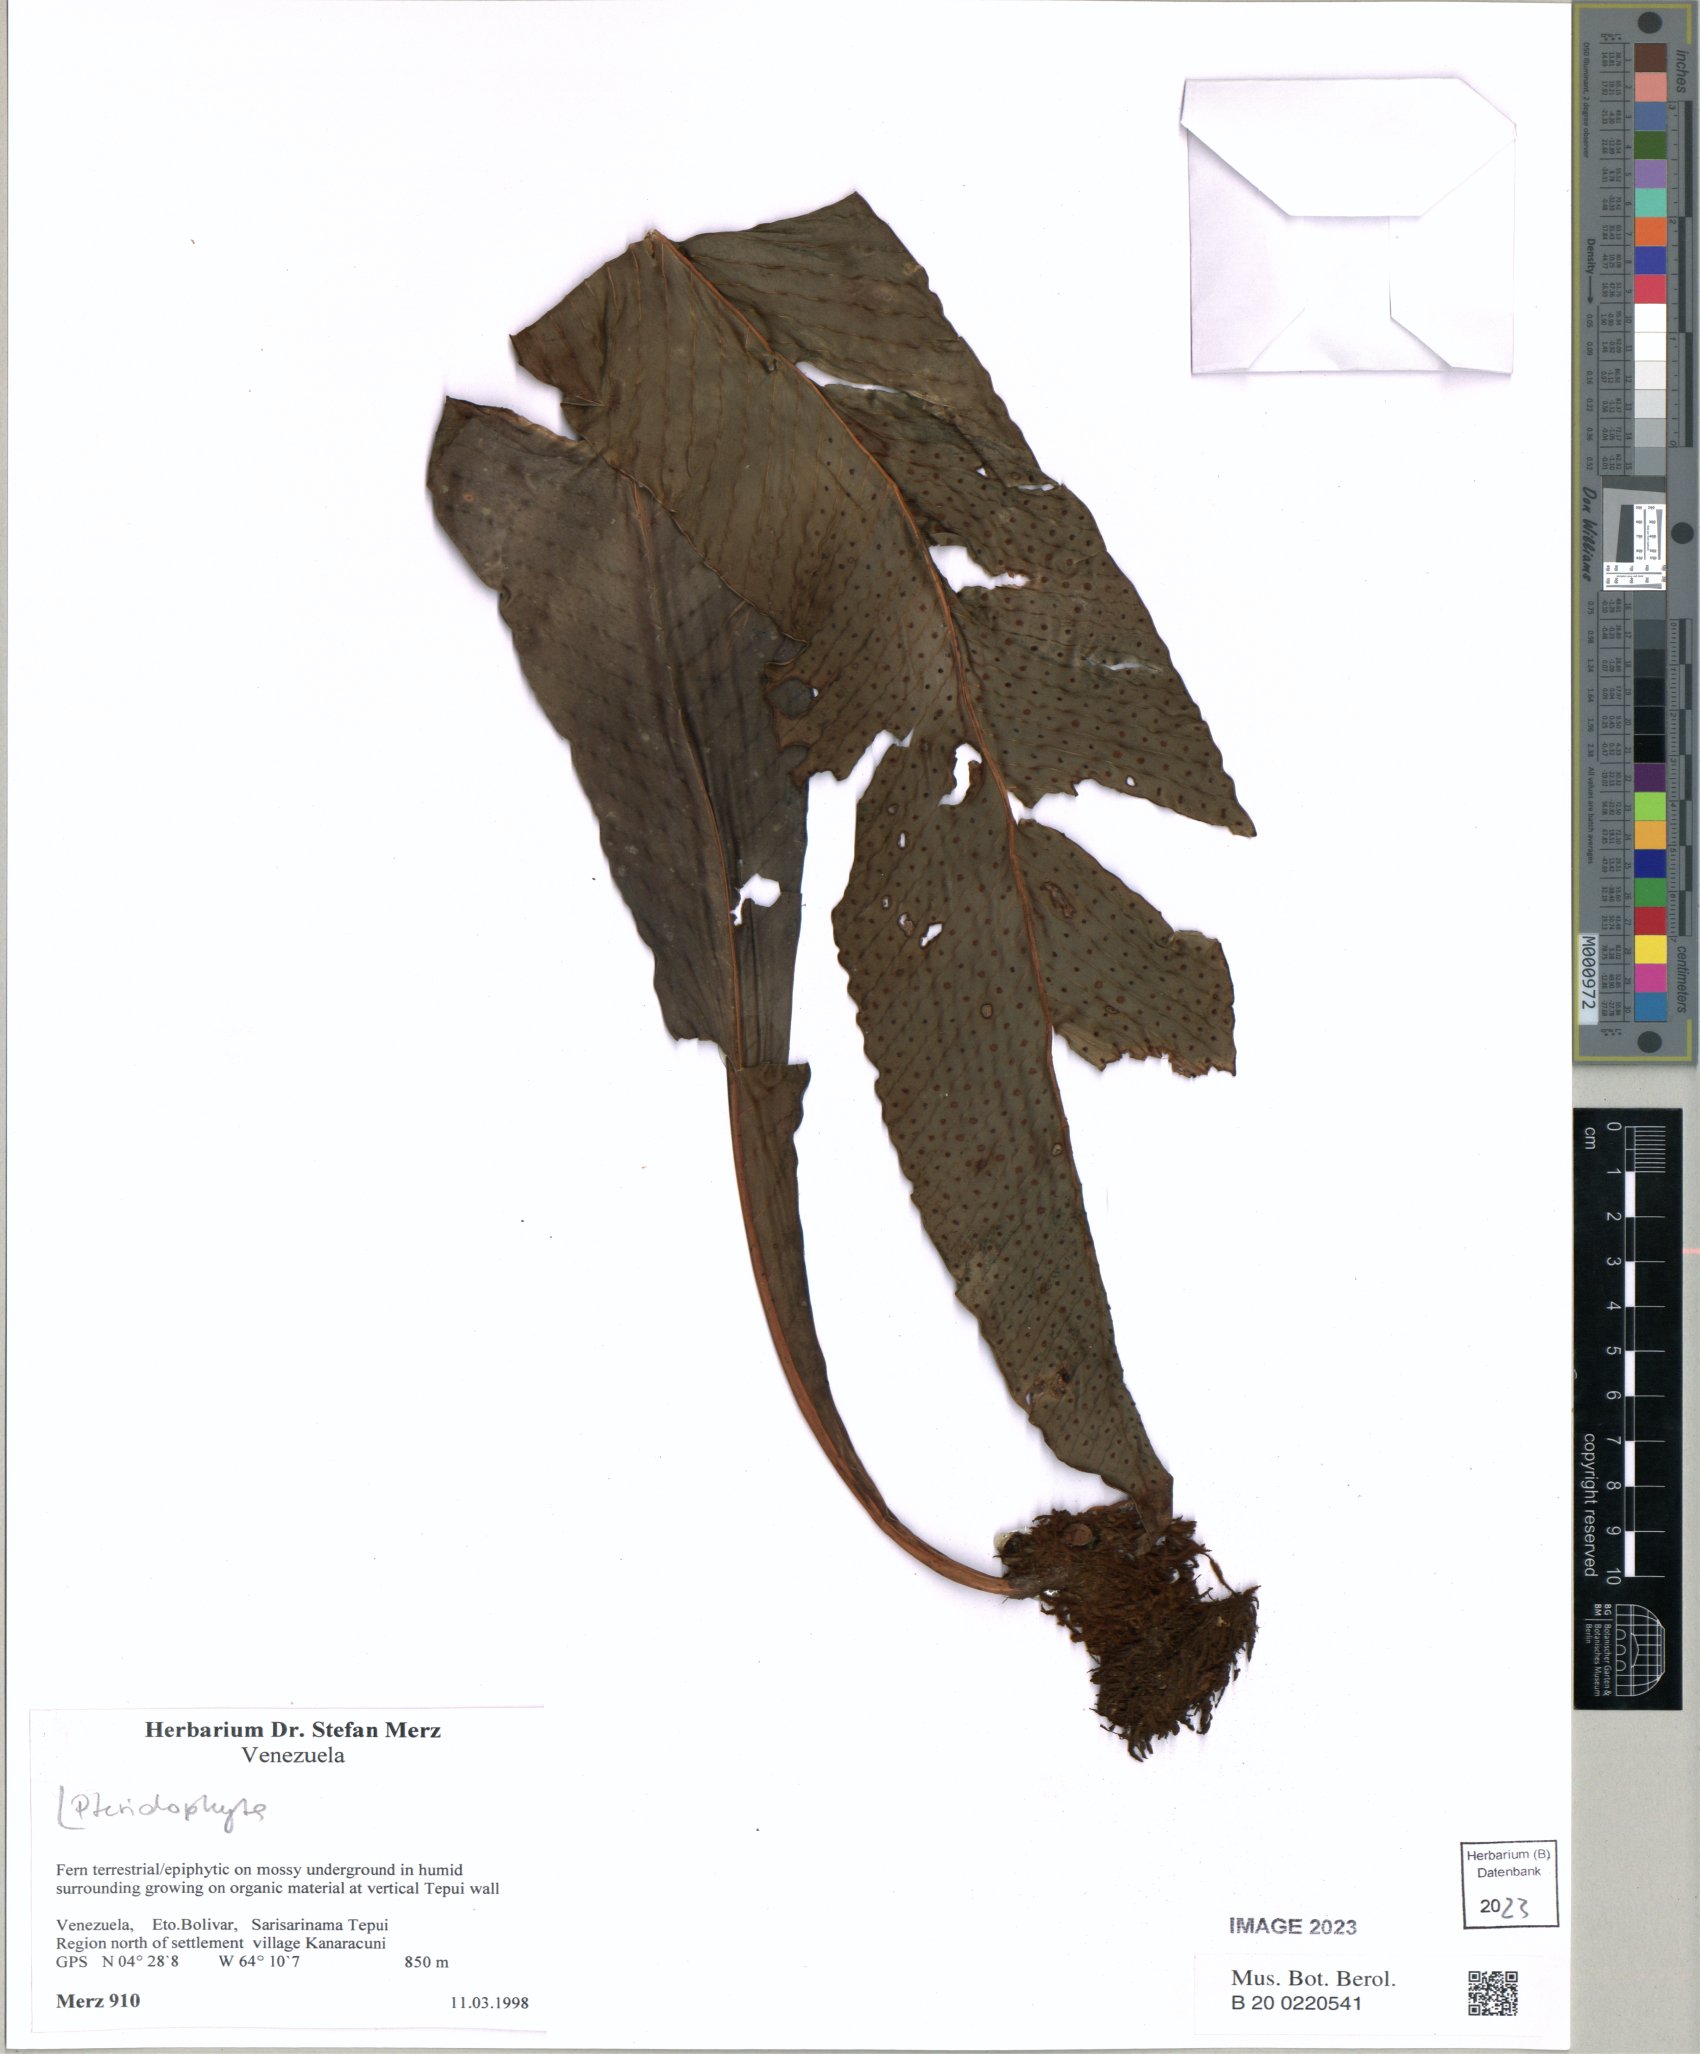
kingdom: Plantae
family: Pteridophyta
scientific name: Pteridophyta
